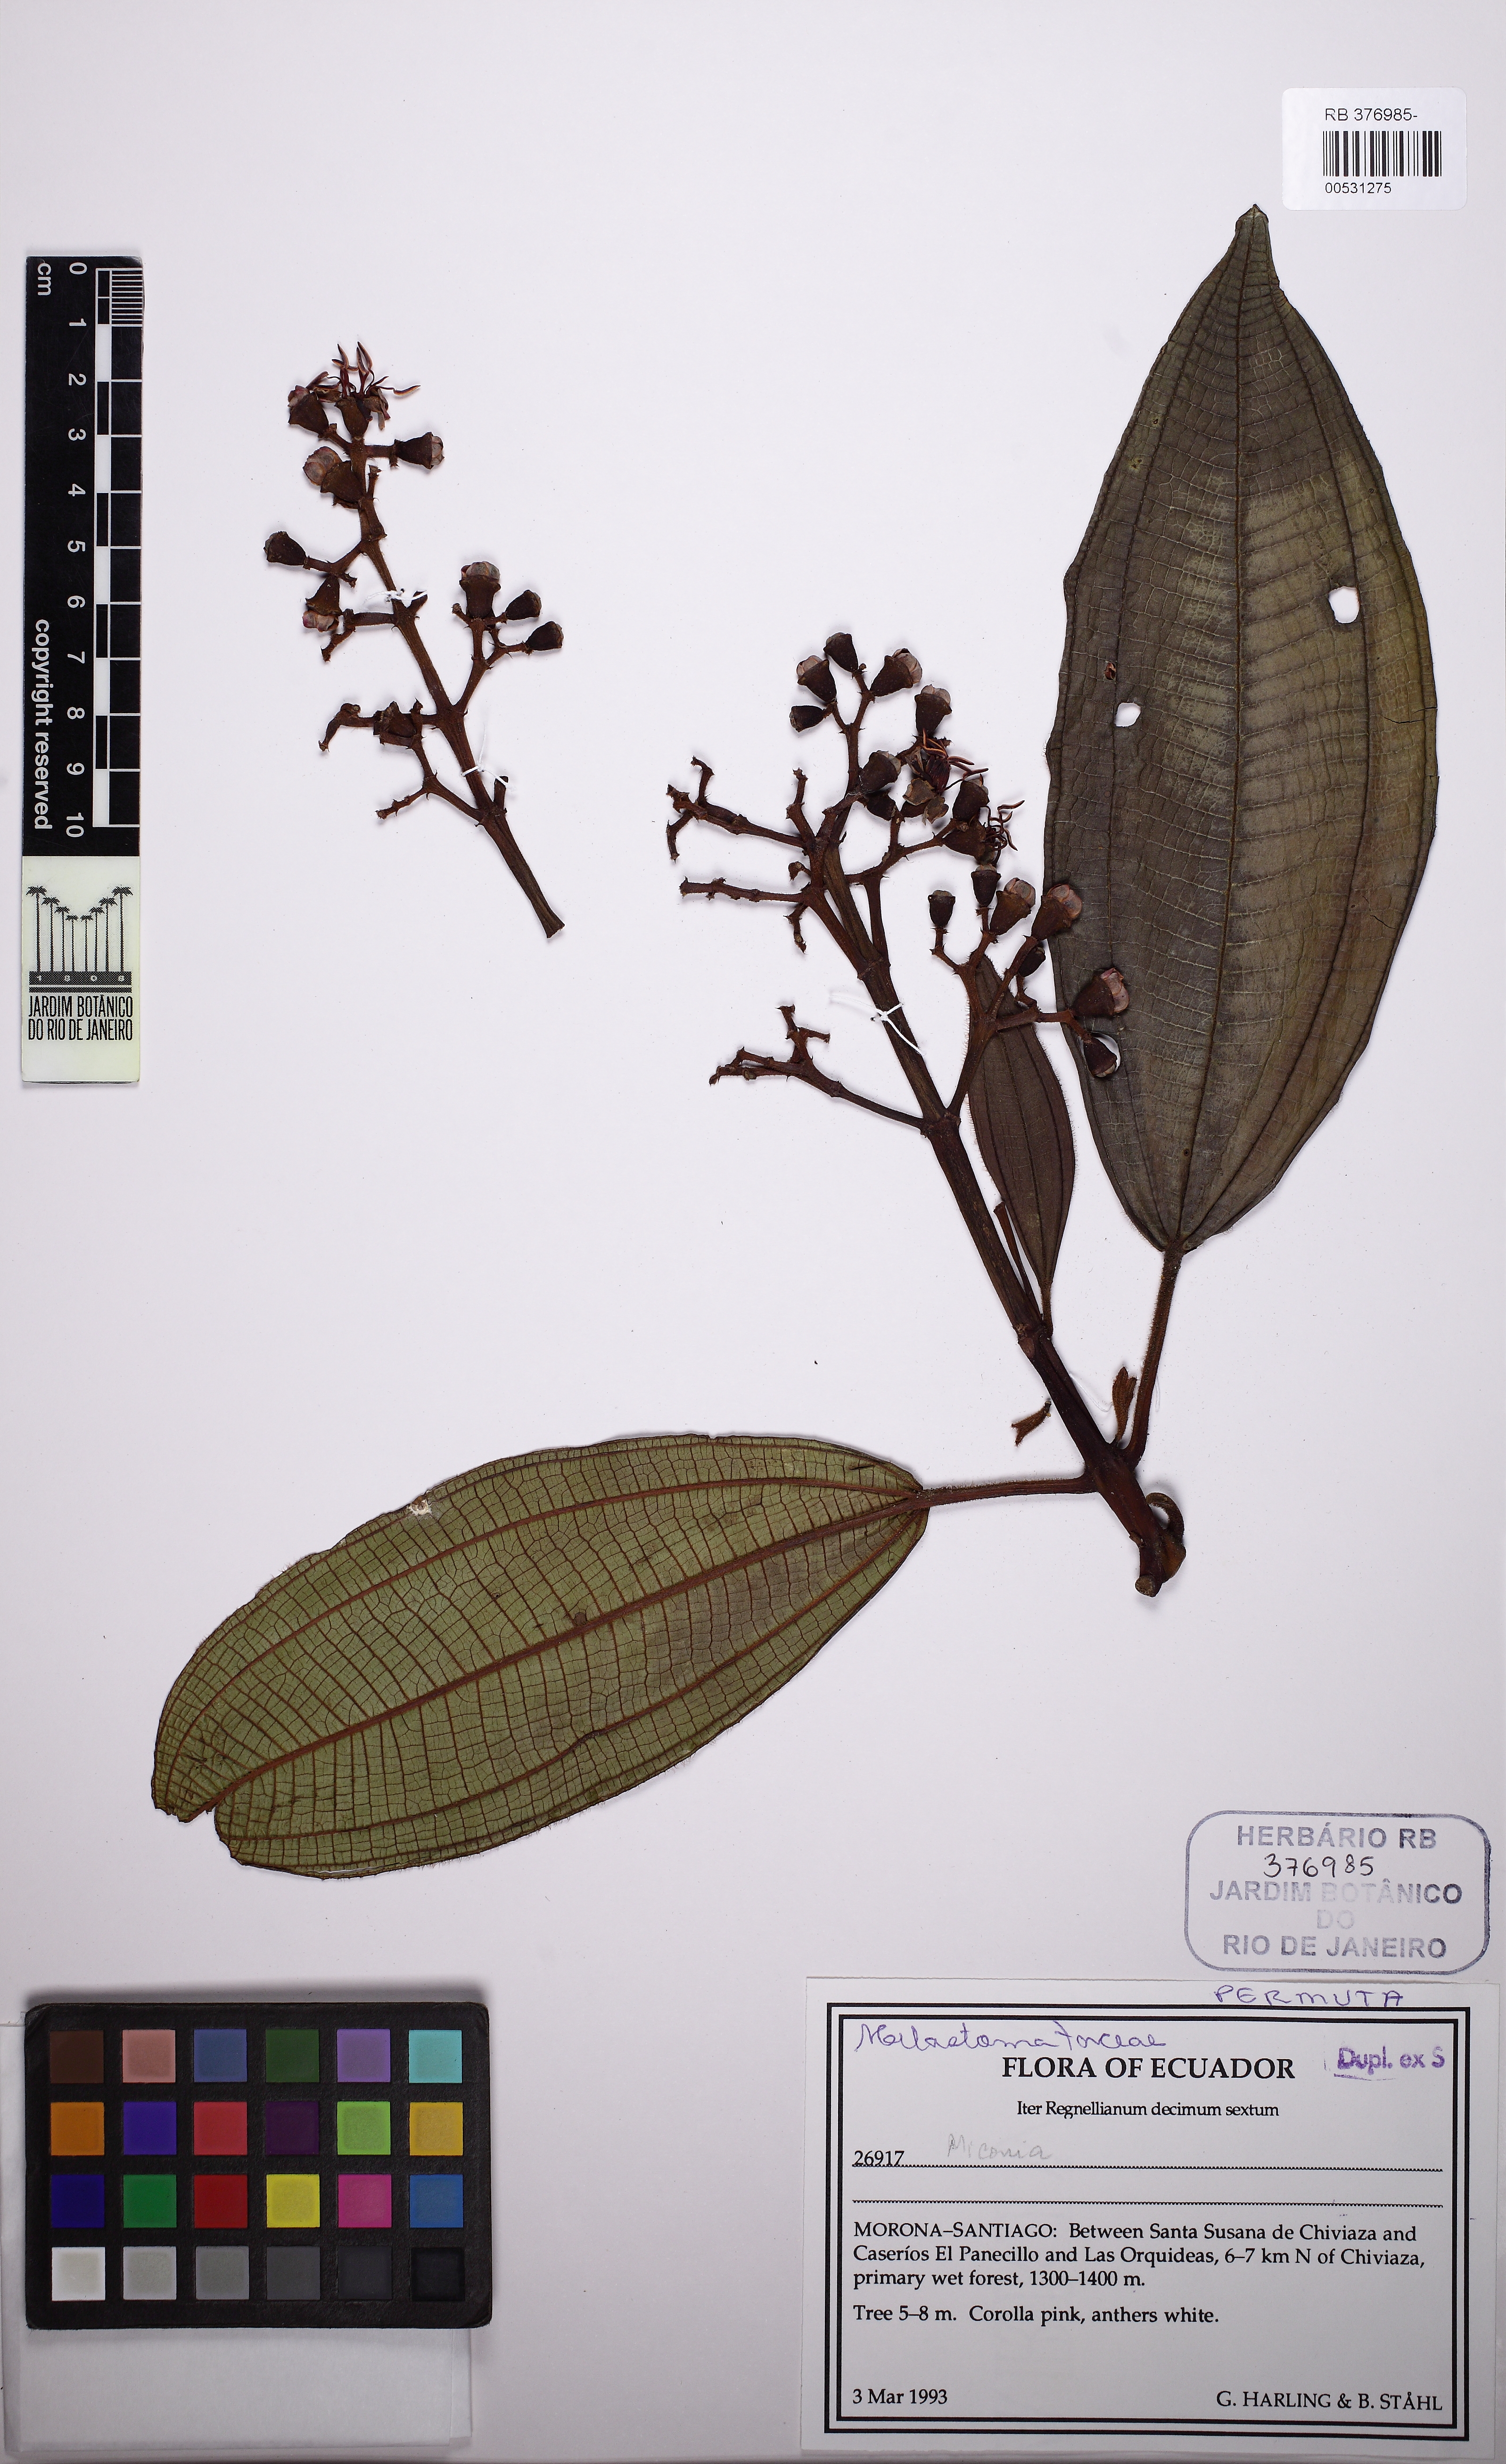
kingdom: Plantae
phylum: Tracheophyta
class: Magnoliopsida
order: Myrtales
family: Melastomataceae
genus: Miconia
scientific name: Miconia
